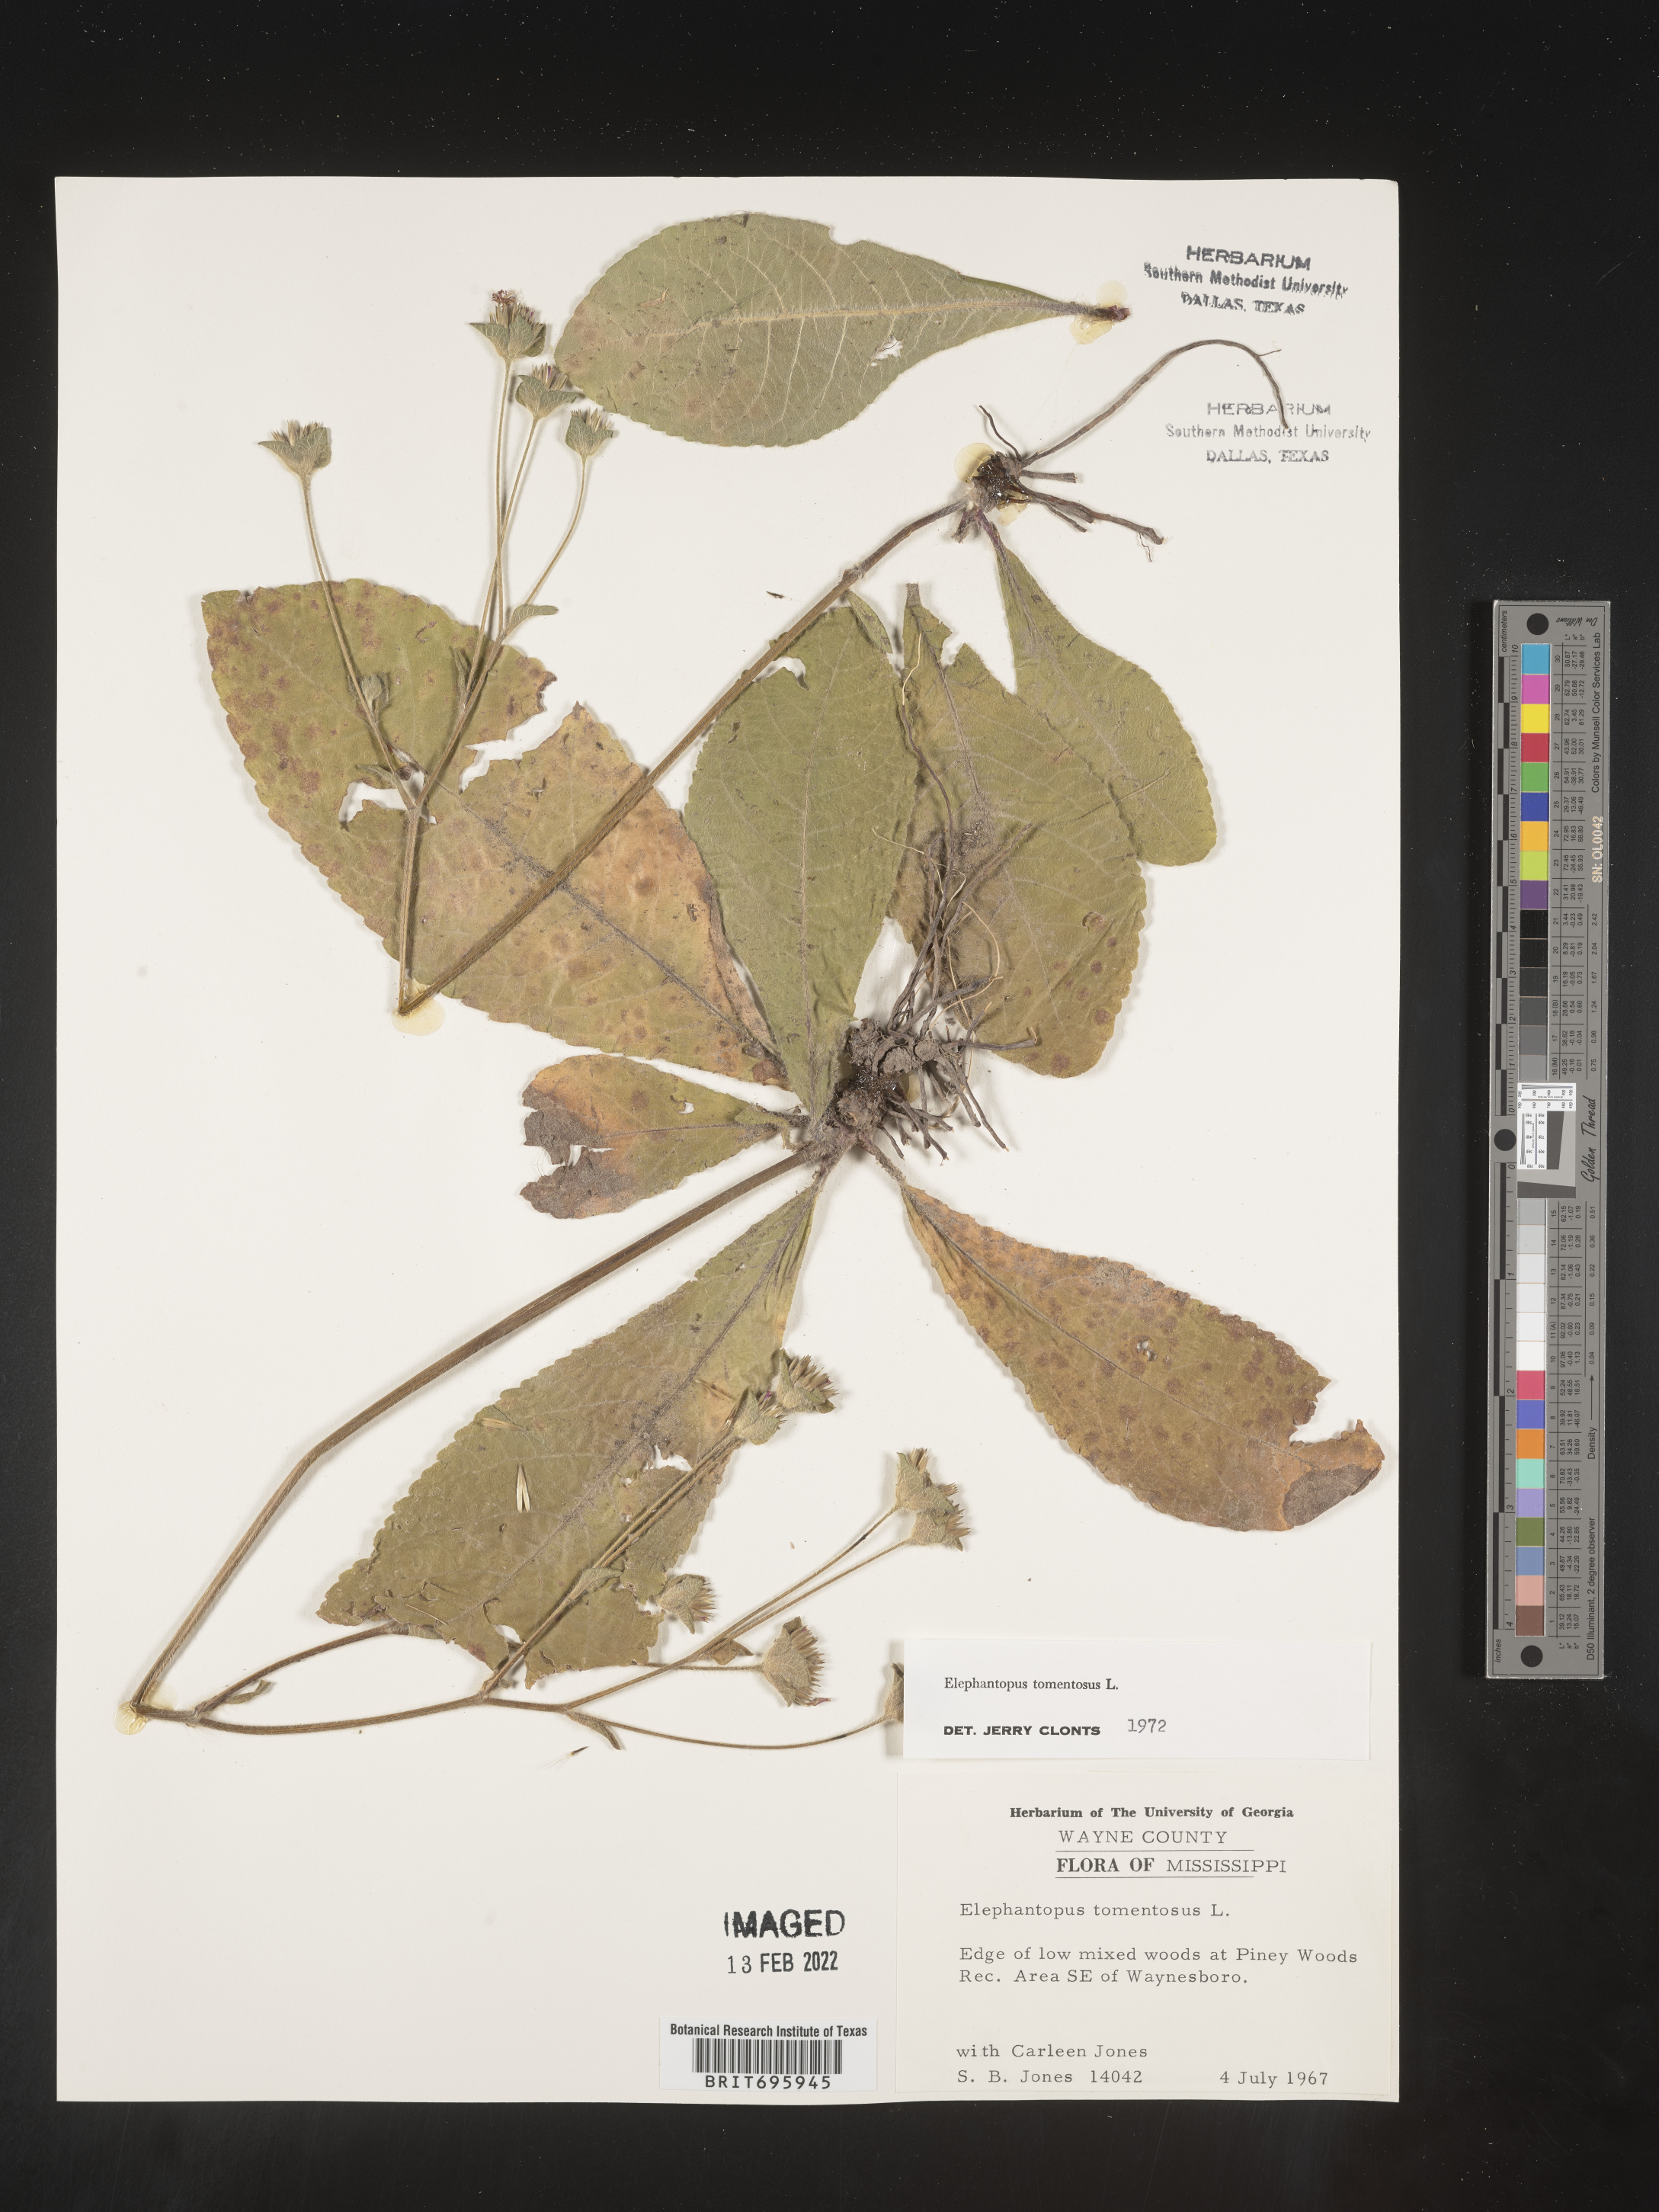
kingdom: Plantae
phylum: Tracheophyta
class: Magnoliopsida
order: Asterales
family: Asteraceae
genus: Elephantopus
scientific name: Elephantopus tomentosus
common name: Tobacco-weed
